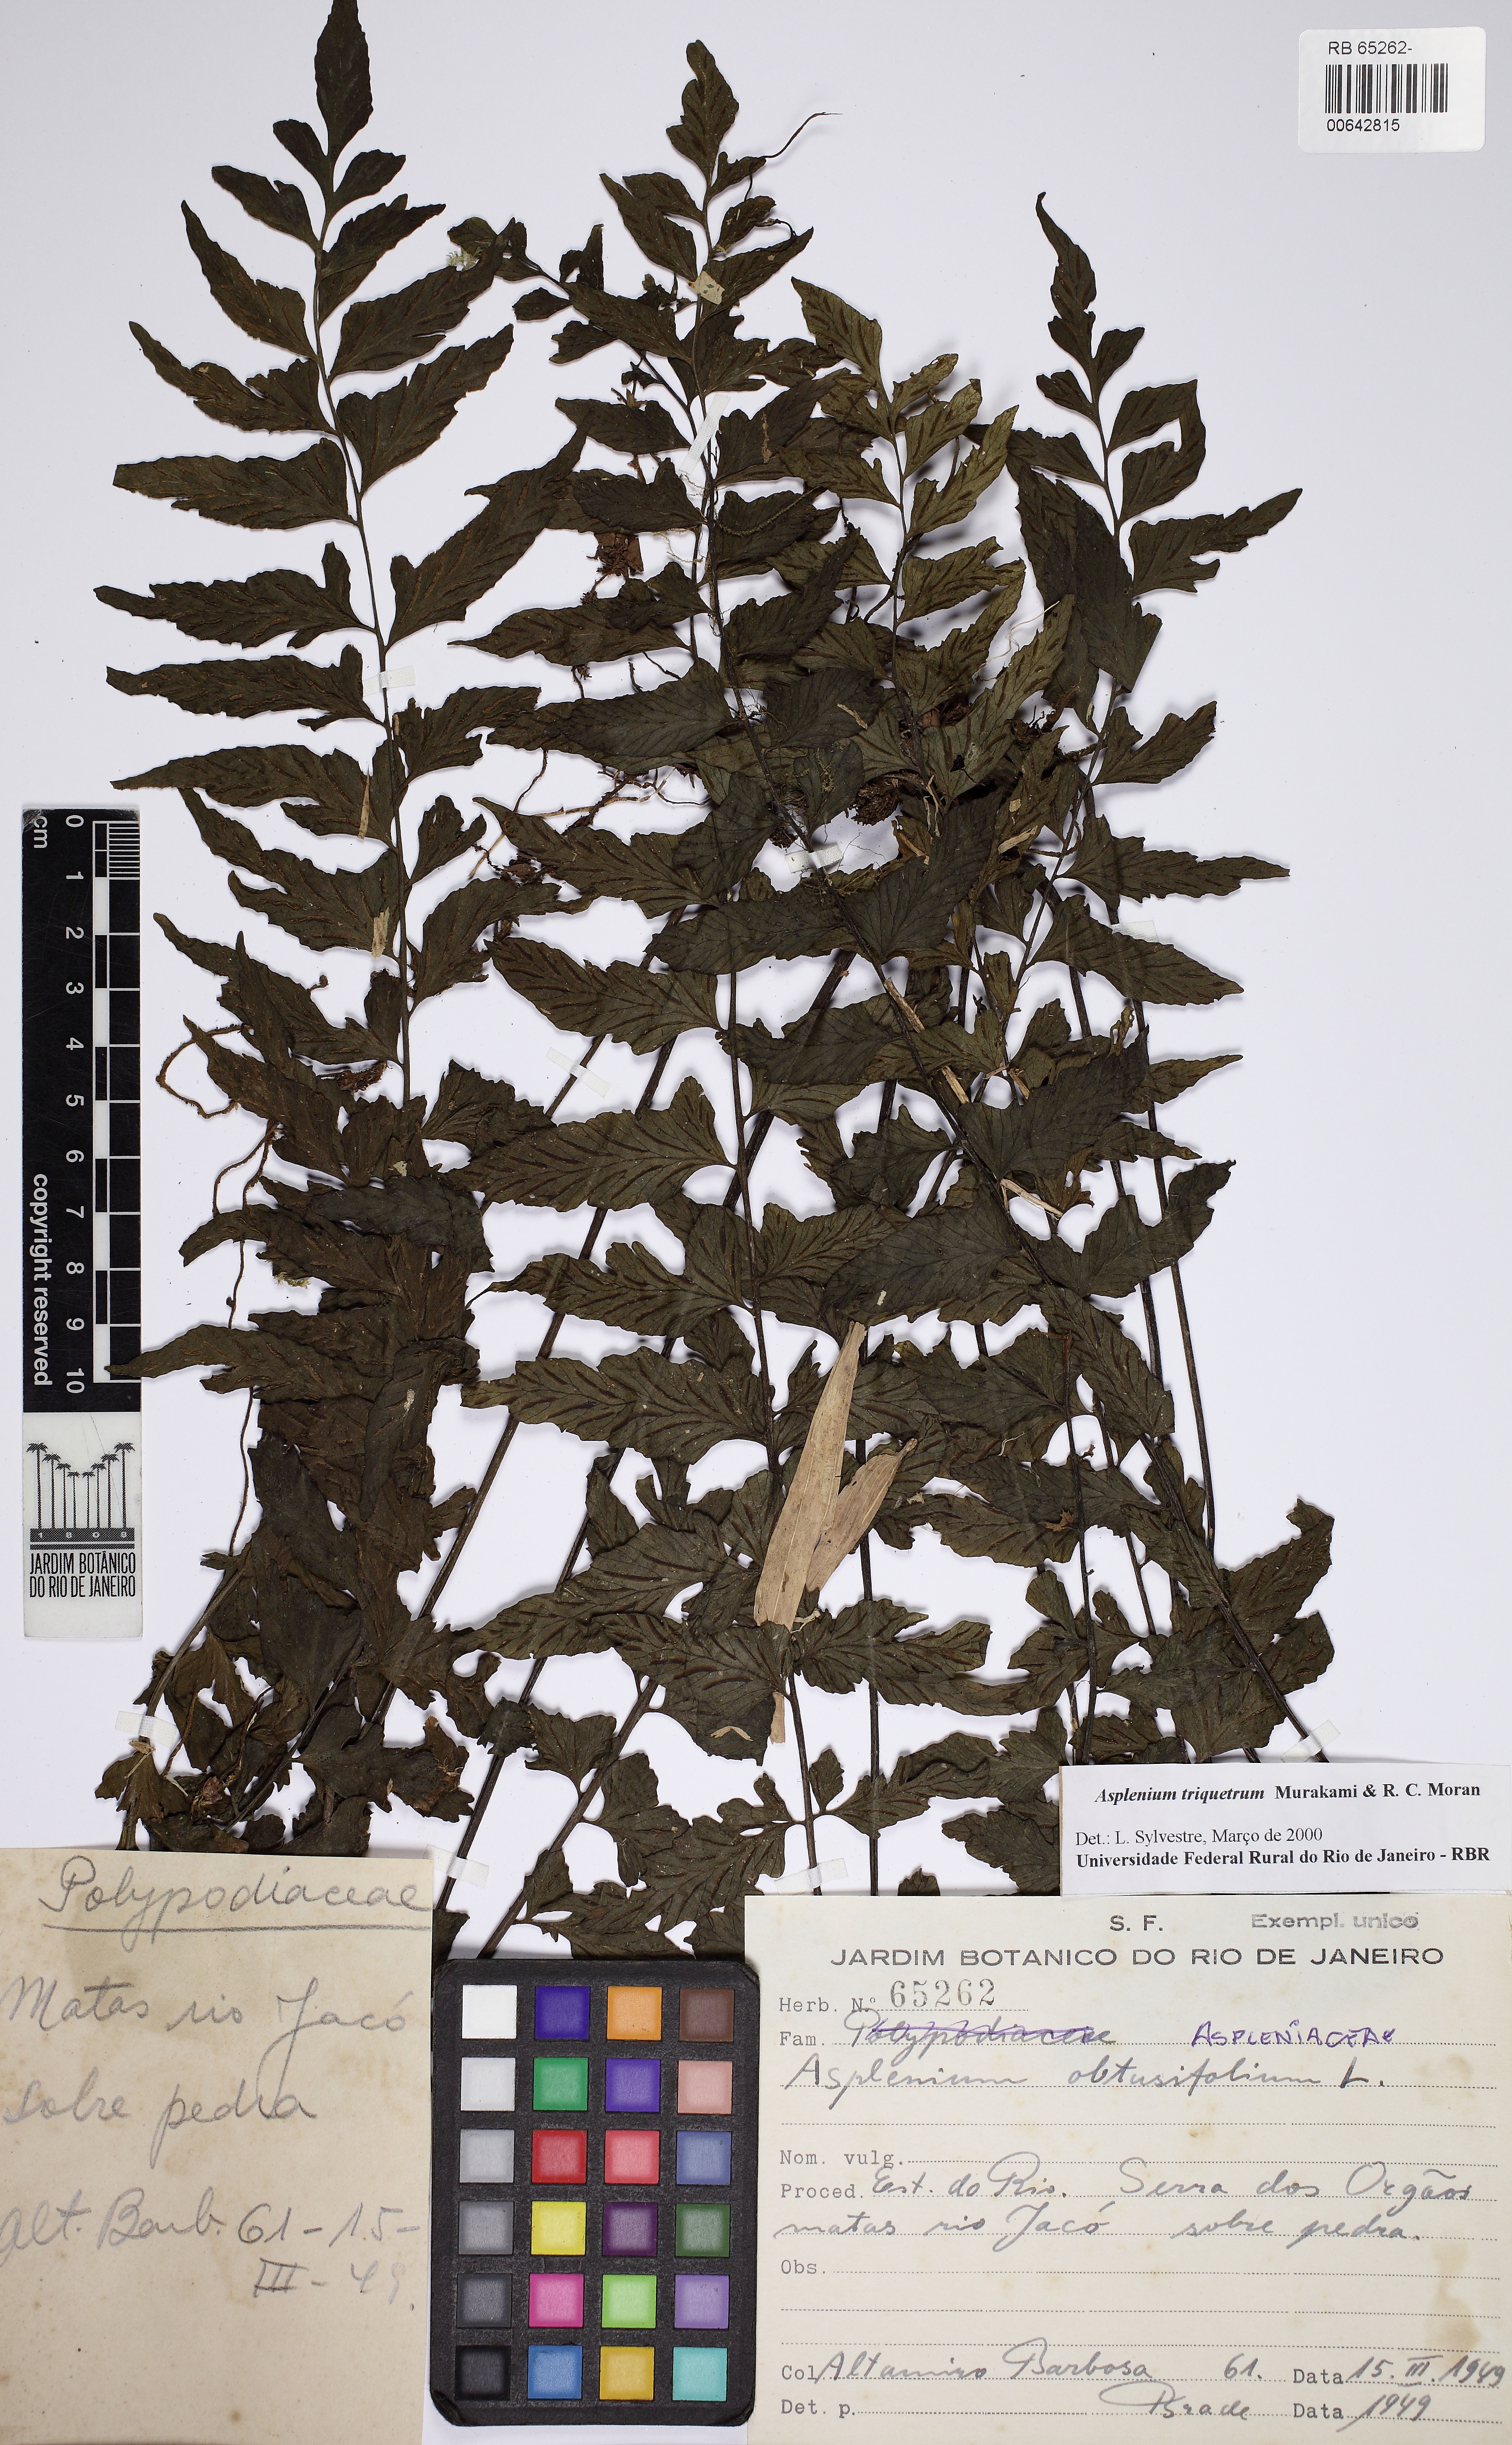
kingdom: Plantae
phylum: Tracheophyta
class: Polypodiopsida
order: Polypodiales
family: Aspleniaceae
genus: Hymenasplenium
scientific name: Hymenasplenium triquetrum
